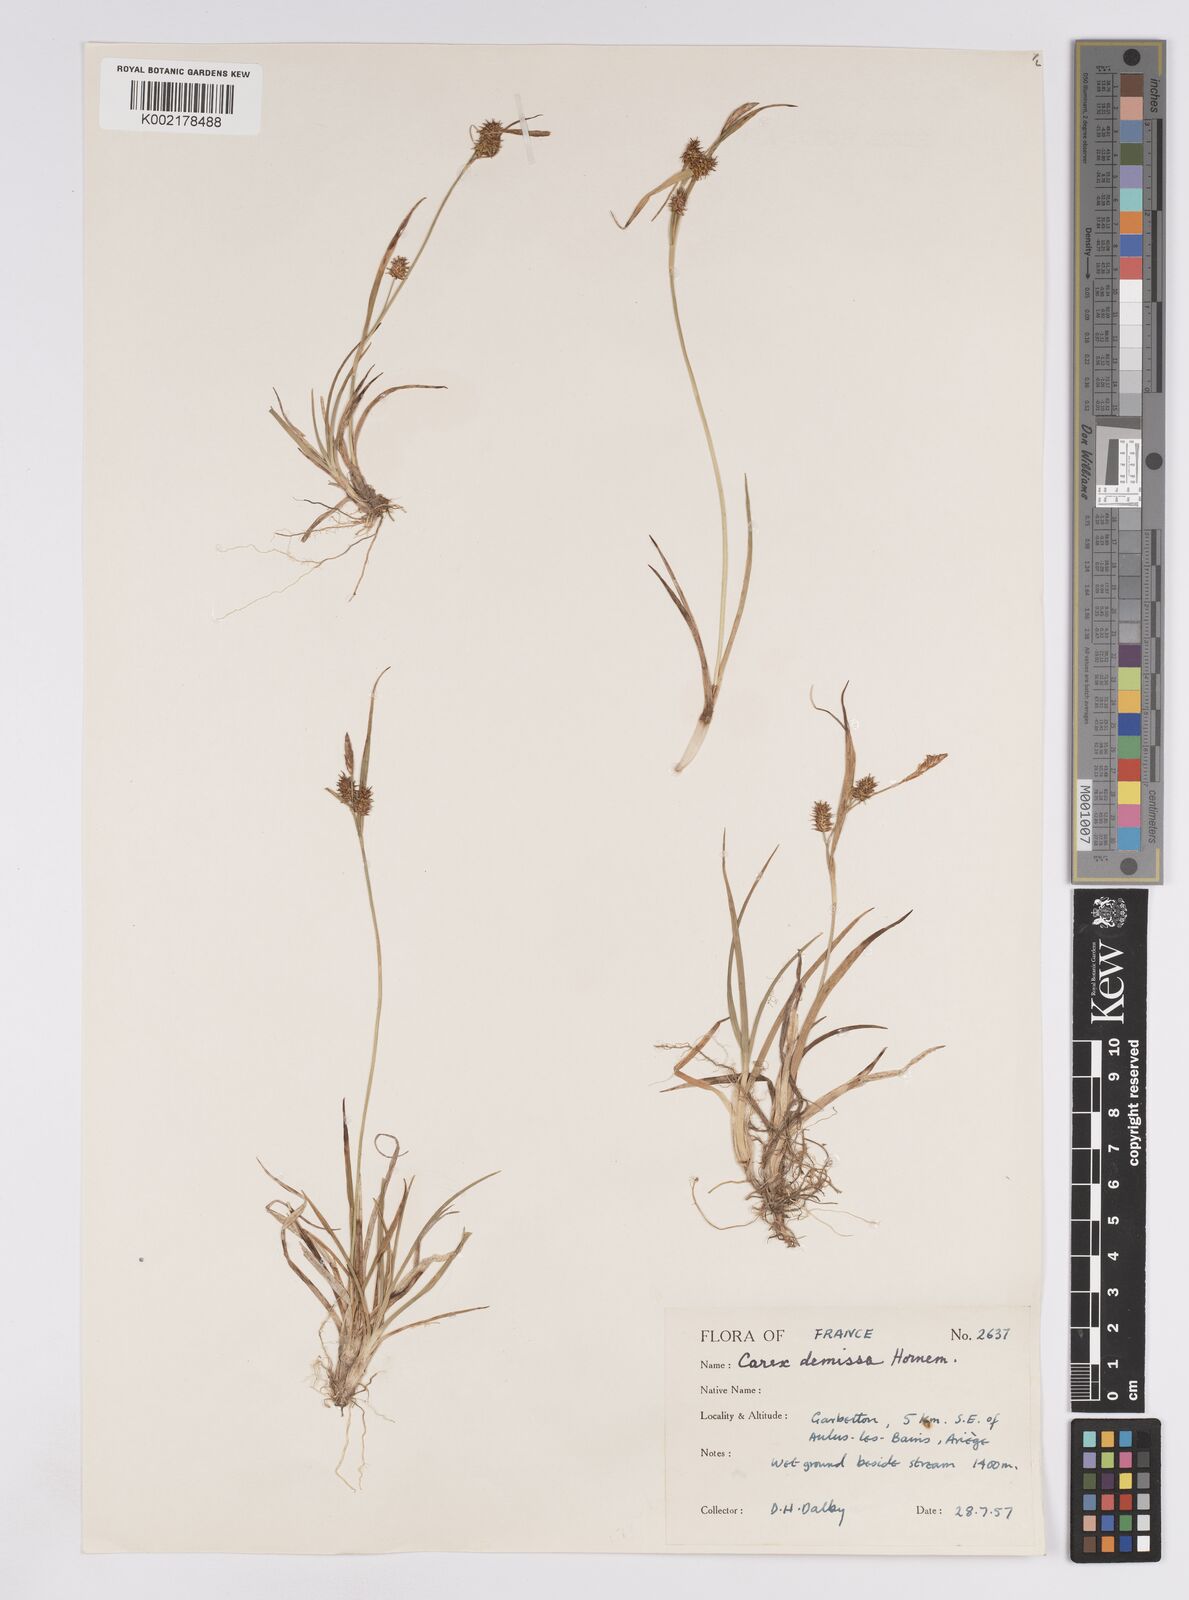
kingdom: Plantae
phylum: Tracheophyta
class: Liliopsida
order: Poales
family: Cyperaceae
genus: Carex
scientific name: Carex demissa
